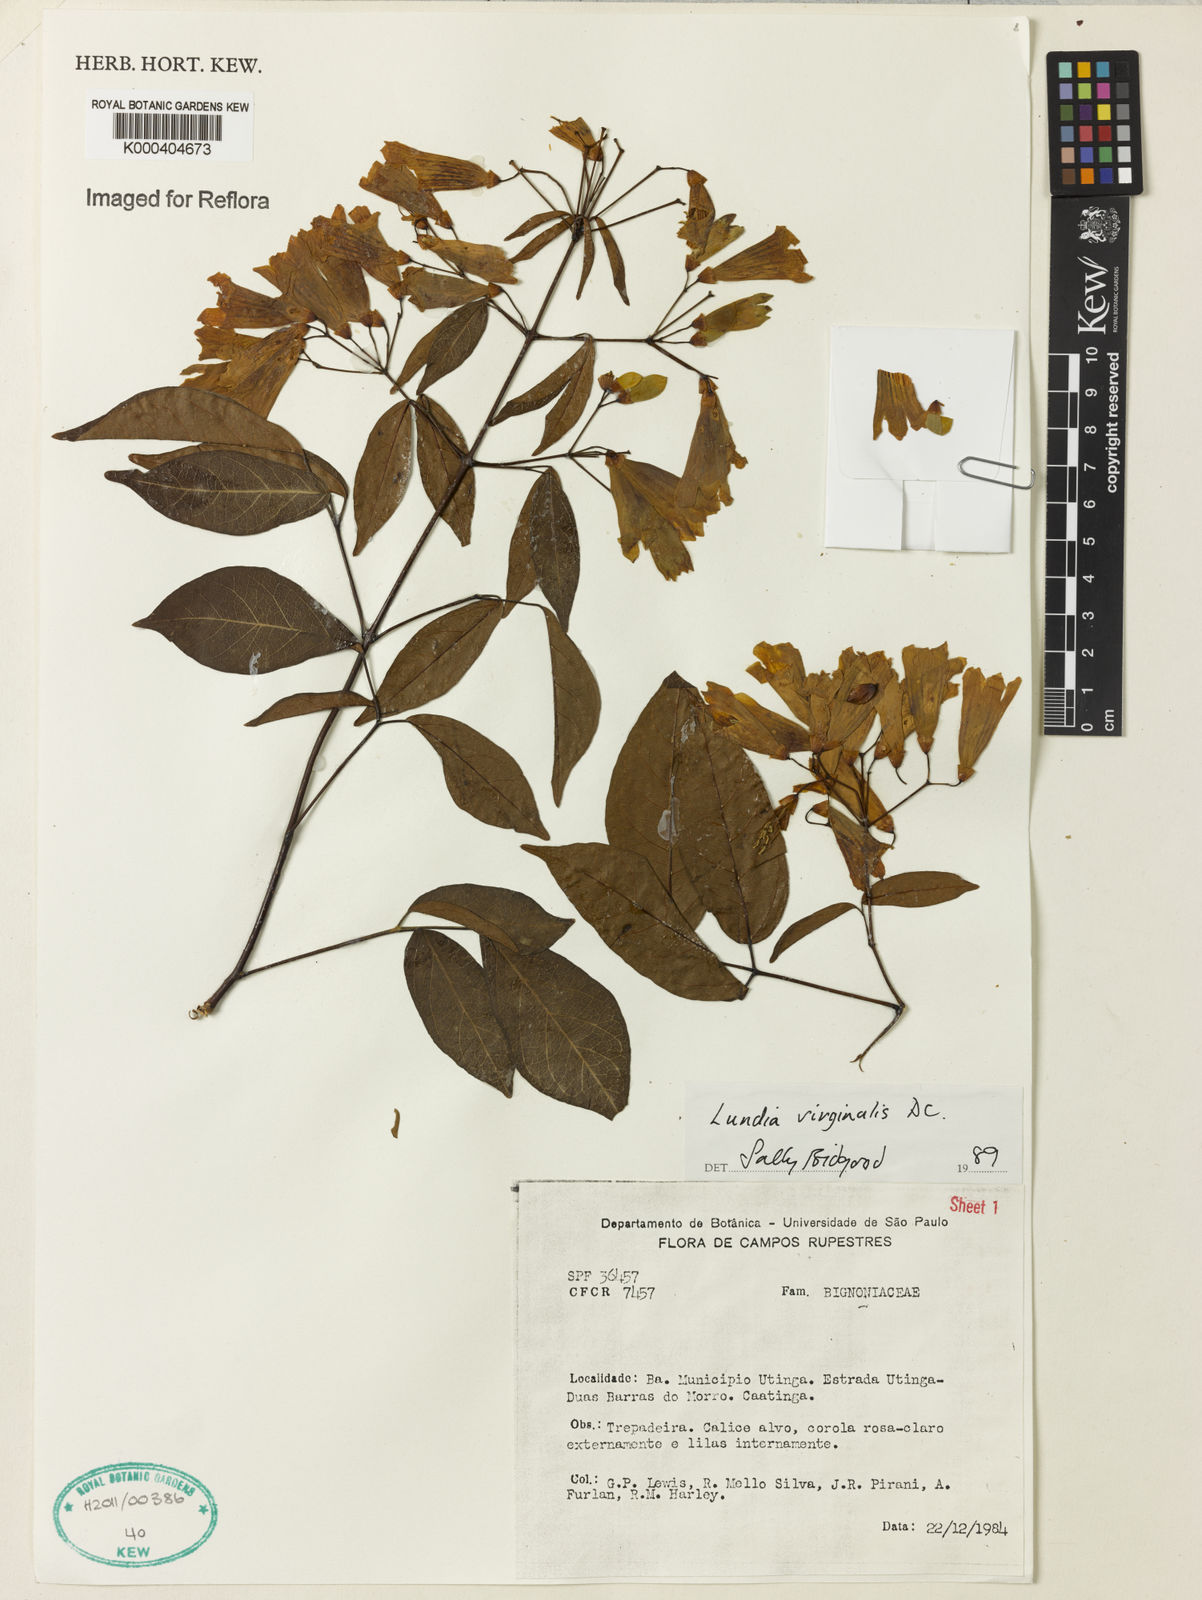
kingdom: Plantae
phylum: Tracheophyta
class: Magnoliopsida
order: Lamiales
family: Bignoniaceae
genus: Lundia
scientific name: Lundia virginalis
